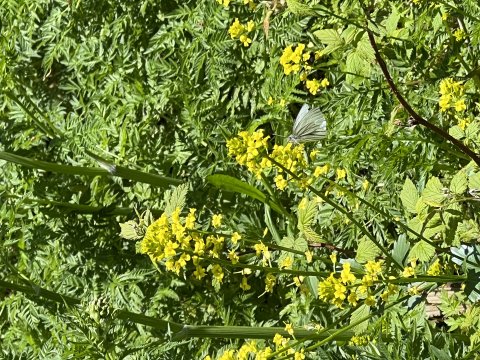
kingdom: Animalia
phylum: Arthropoda
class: Insecta
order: Lepidoptera
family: Pieridae
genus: Pieris
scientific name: Pieris oleracea
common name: Mustard White
